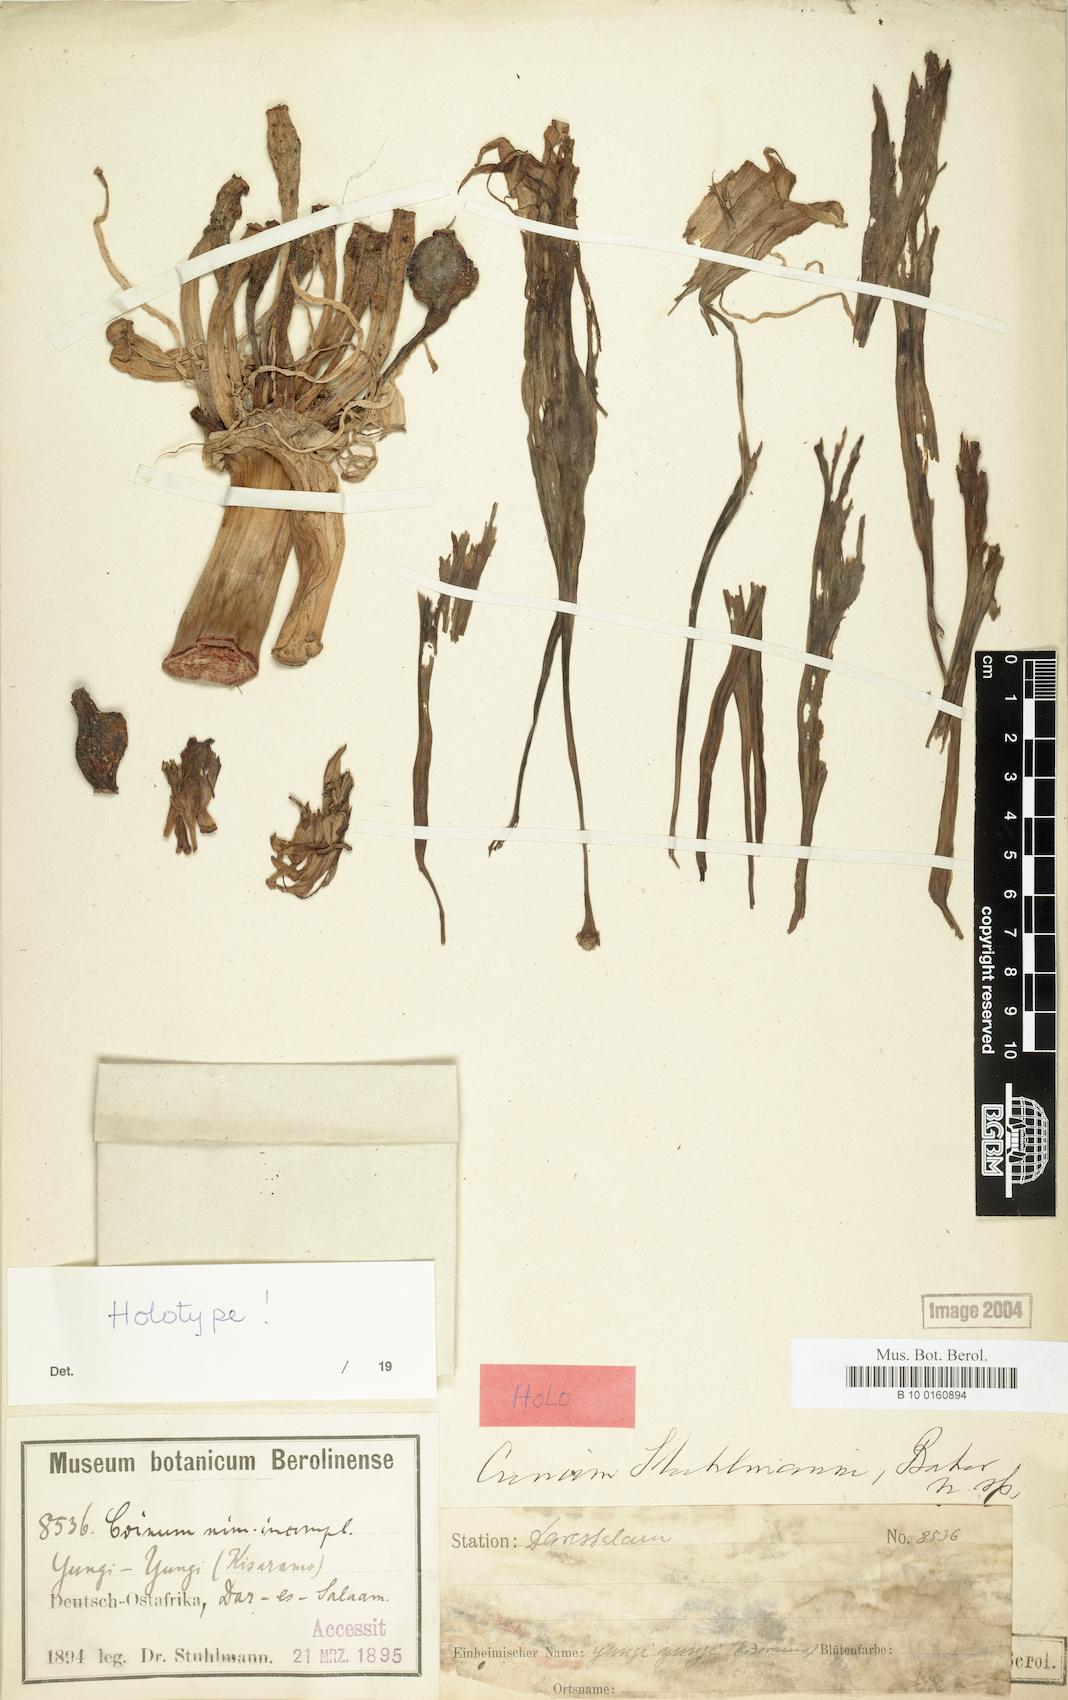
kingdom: Plantae
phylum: Tracheophyta
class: Liliopsida
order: Asparagales
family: Amaryllidaceae
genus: Crinum
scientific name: Crinum stuhlmannii
